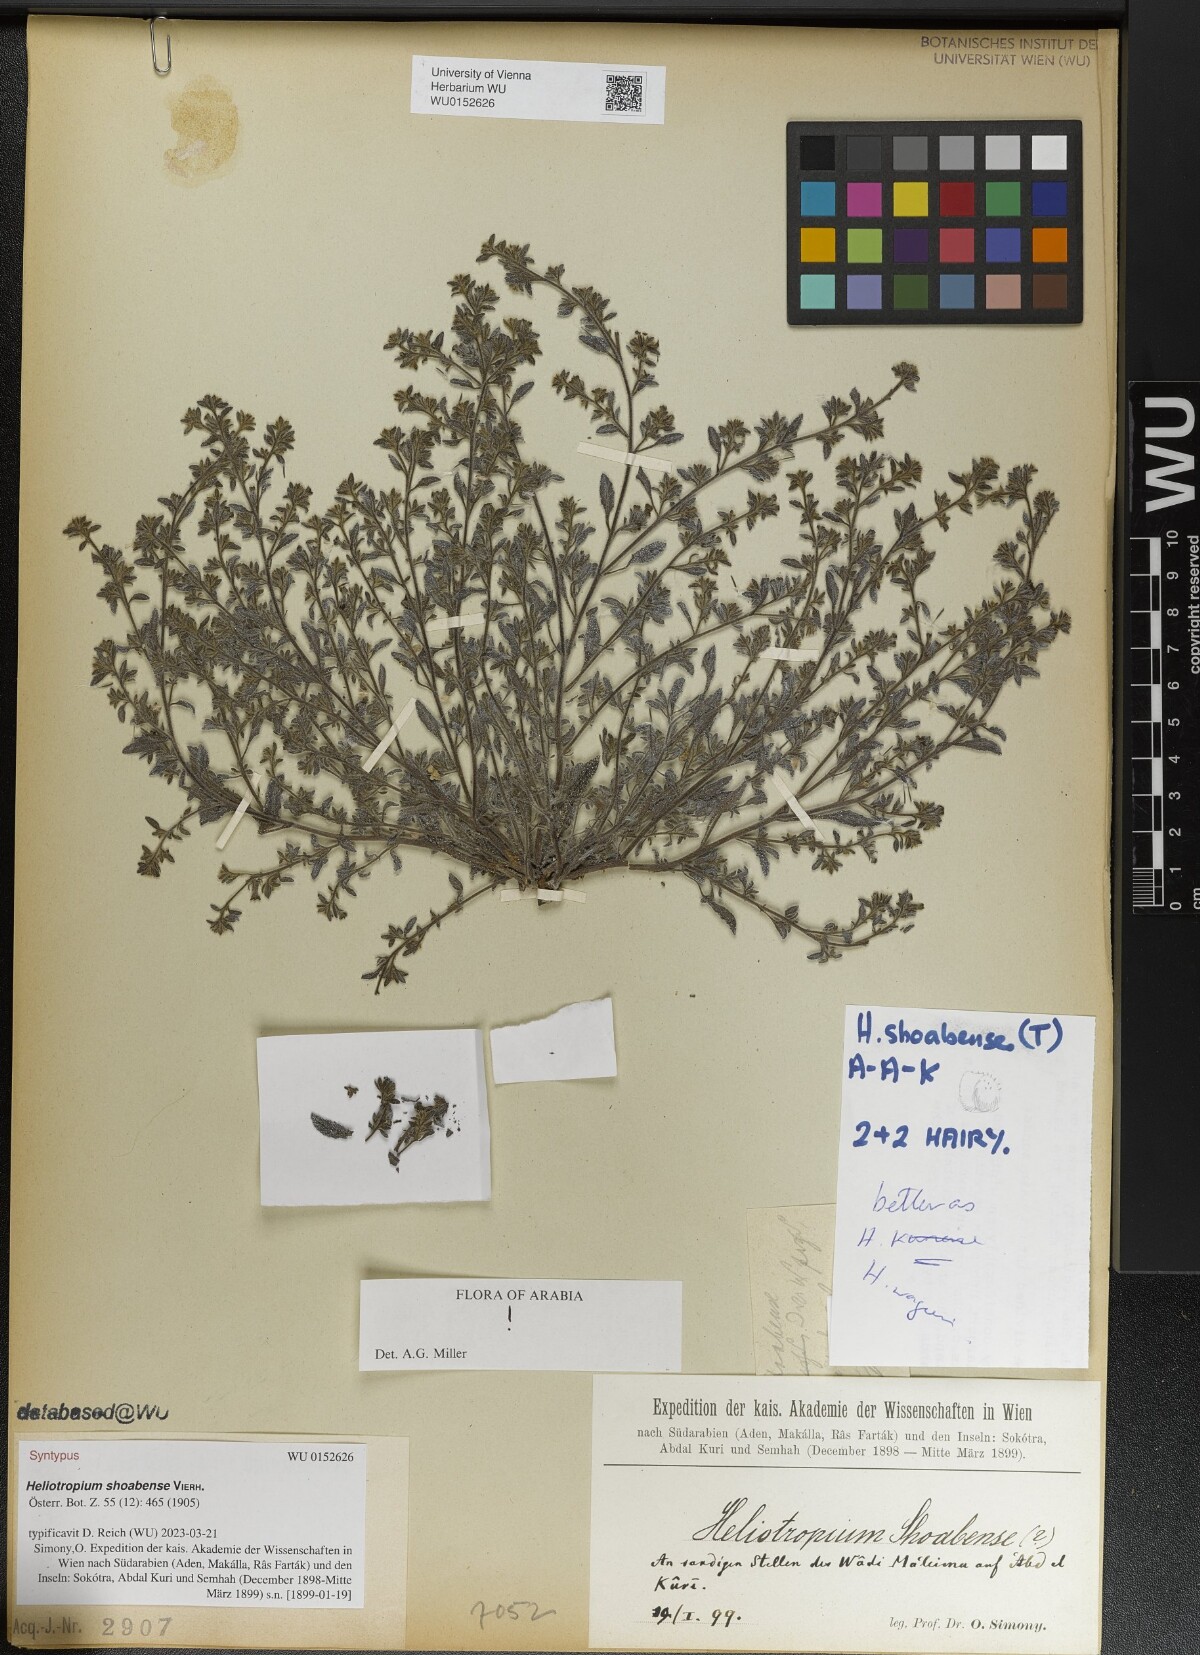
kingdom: Plantae
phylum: Tracheophyta
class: Magnoliopsida
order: Boraginales
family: Heliotropiaceae
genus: Heliotropium
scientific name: Heliotropium shoabense
